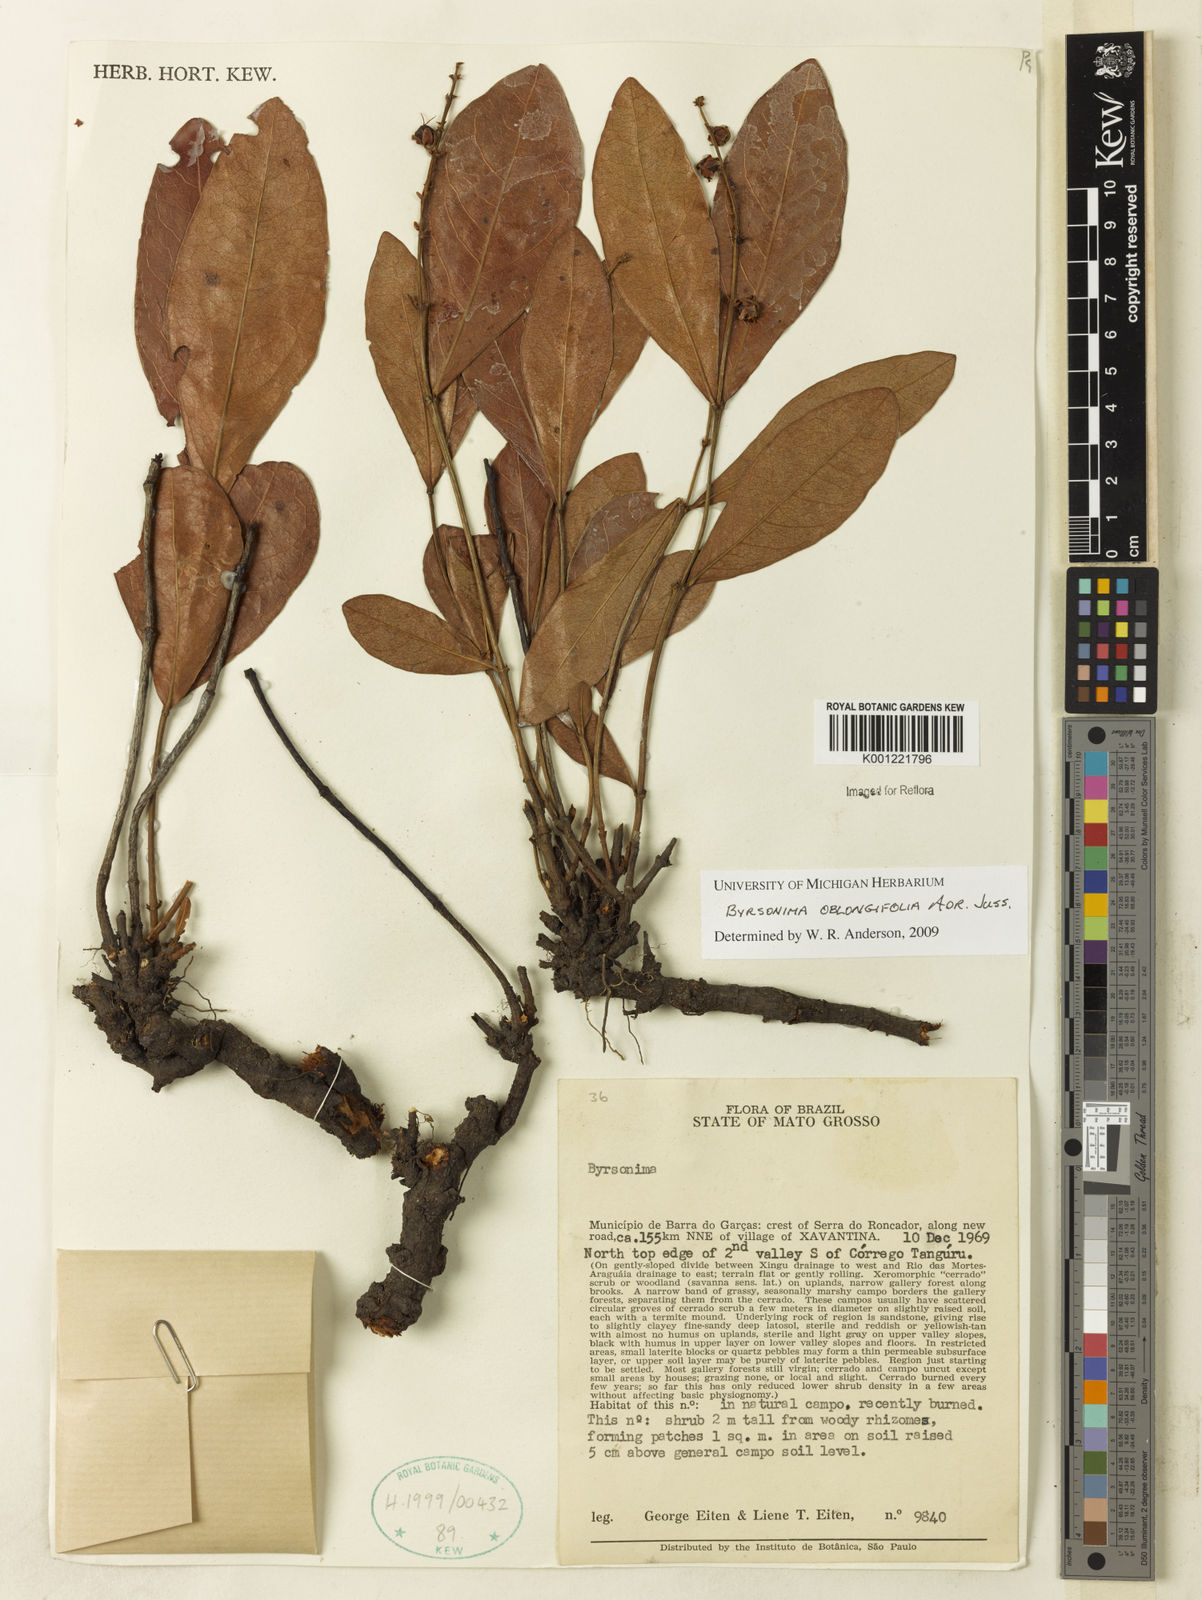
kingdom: Plantae
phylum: Tracheophyta
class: Magnoliopsida
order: Malpighiales
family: Malpighiaceae
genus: Byrsonima
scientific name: Byrsonima oblongifolia
